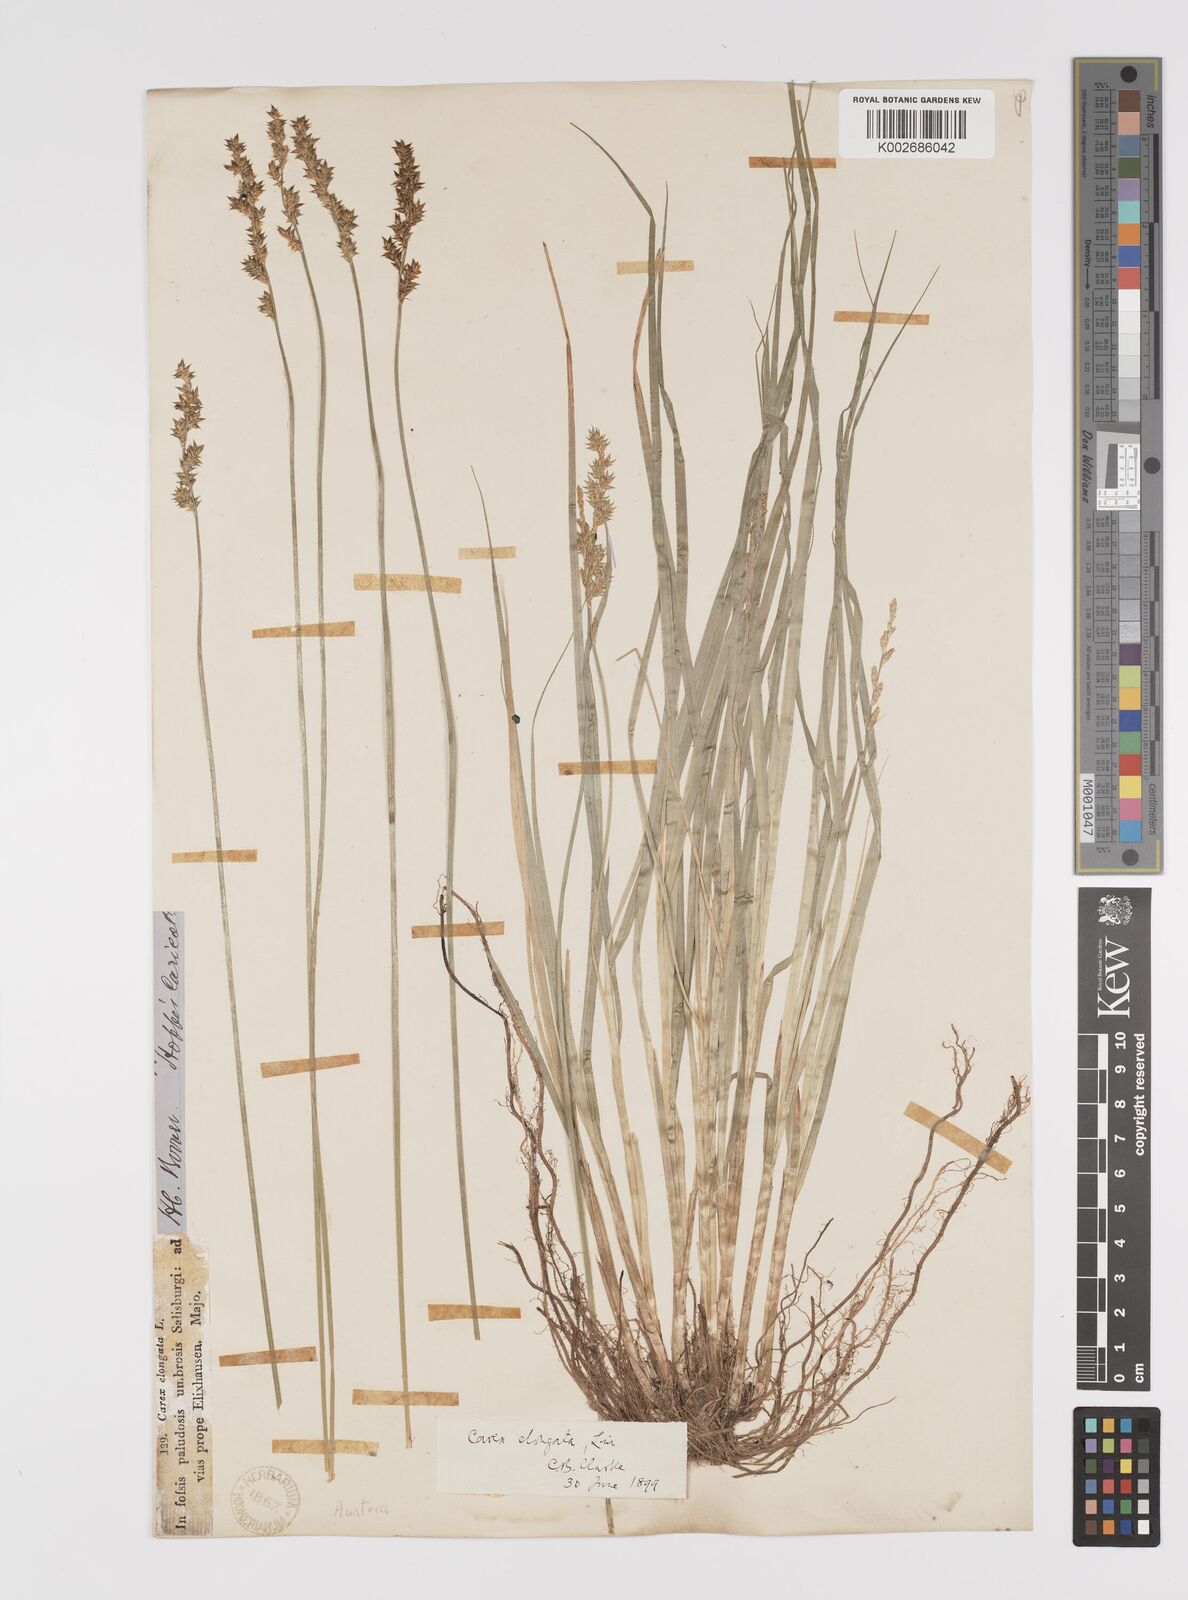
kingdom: Plantae
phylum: Tracheophyta
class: Liliopsida
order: Poales
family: Cyperaceae
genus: Carex
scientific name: Carex elongata
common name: Elongated sedge
